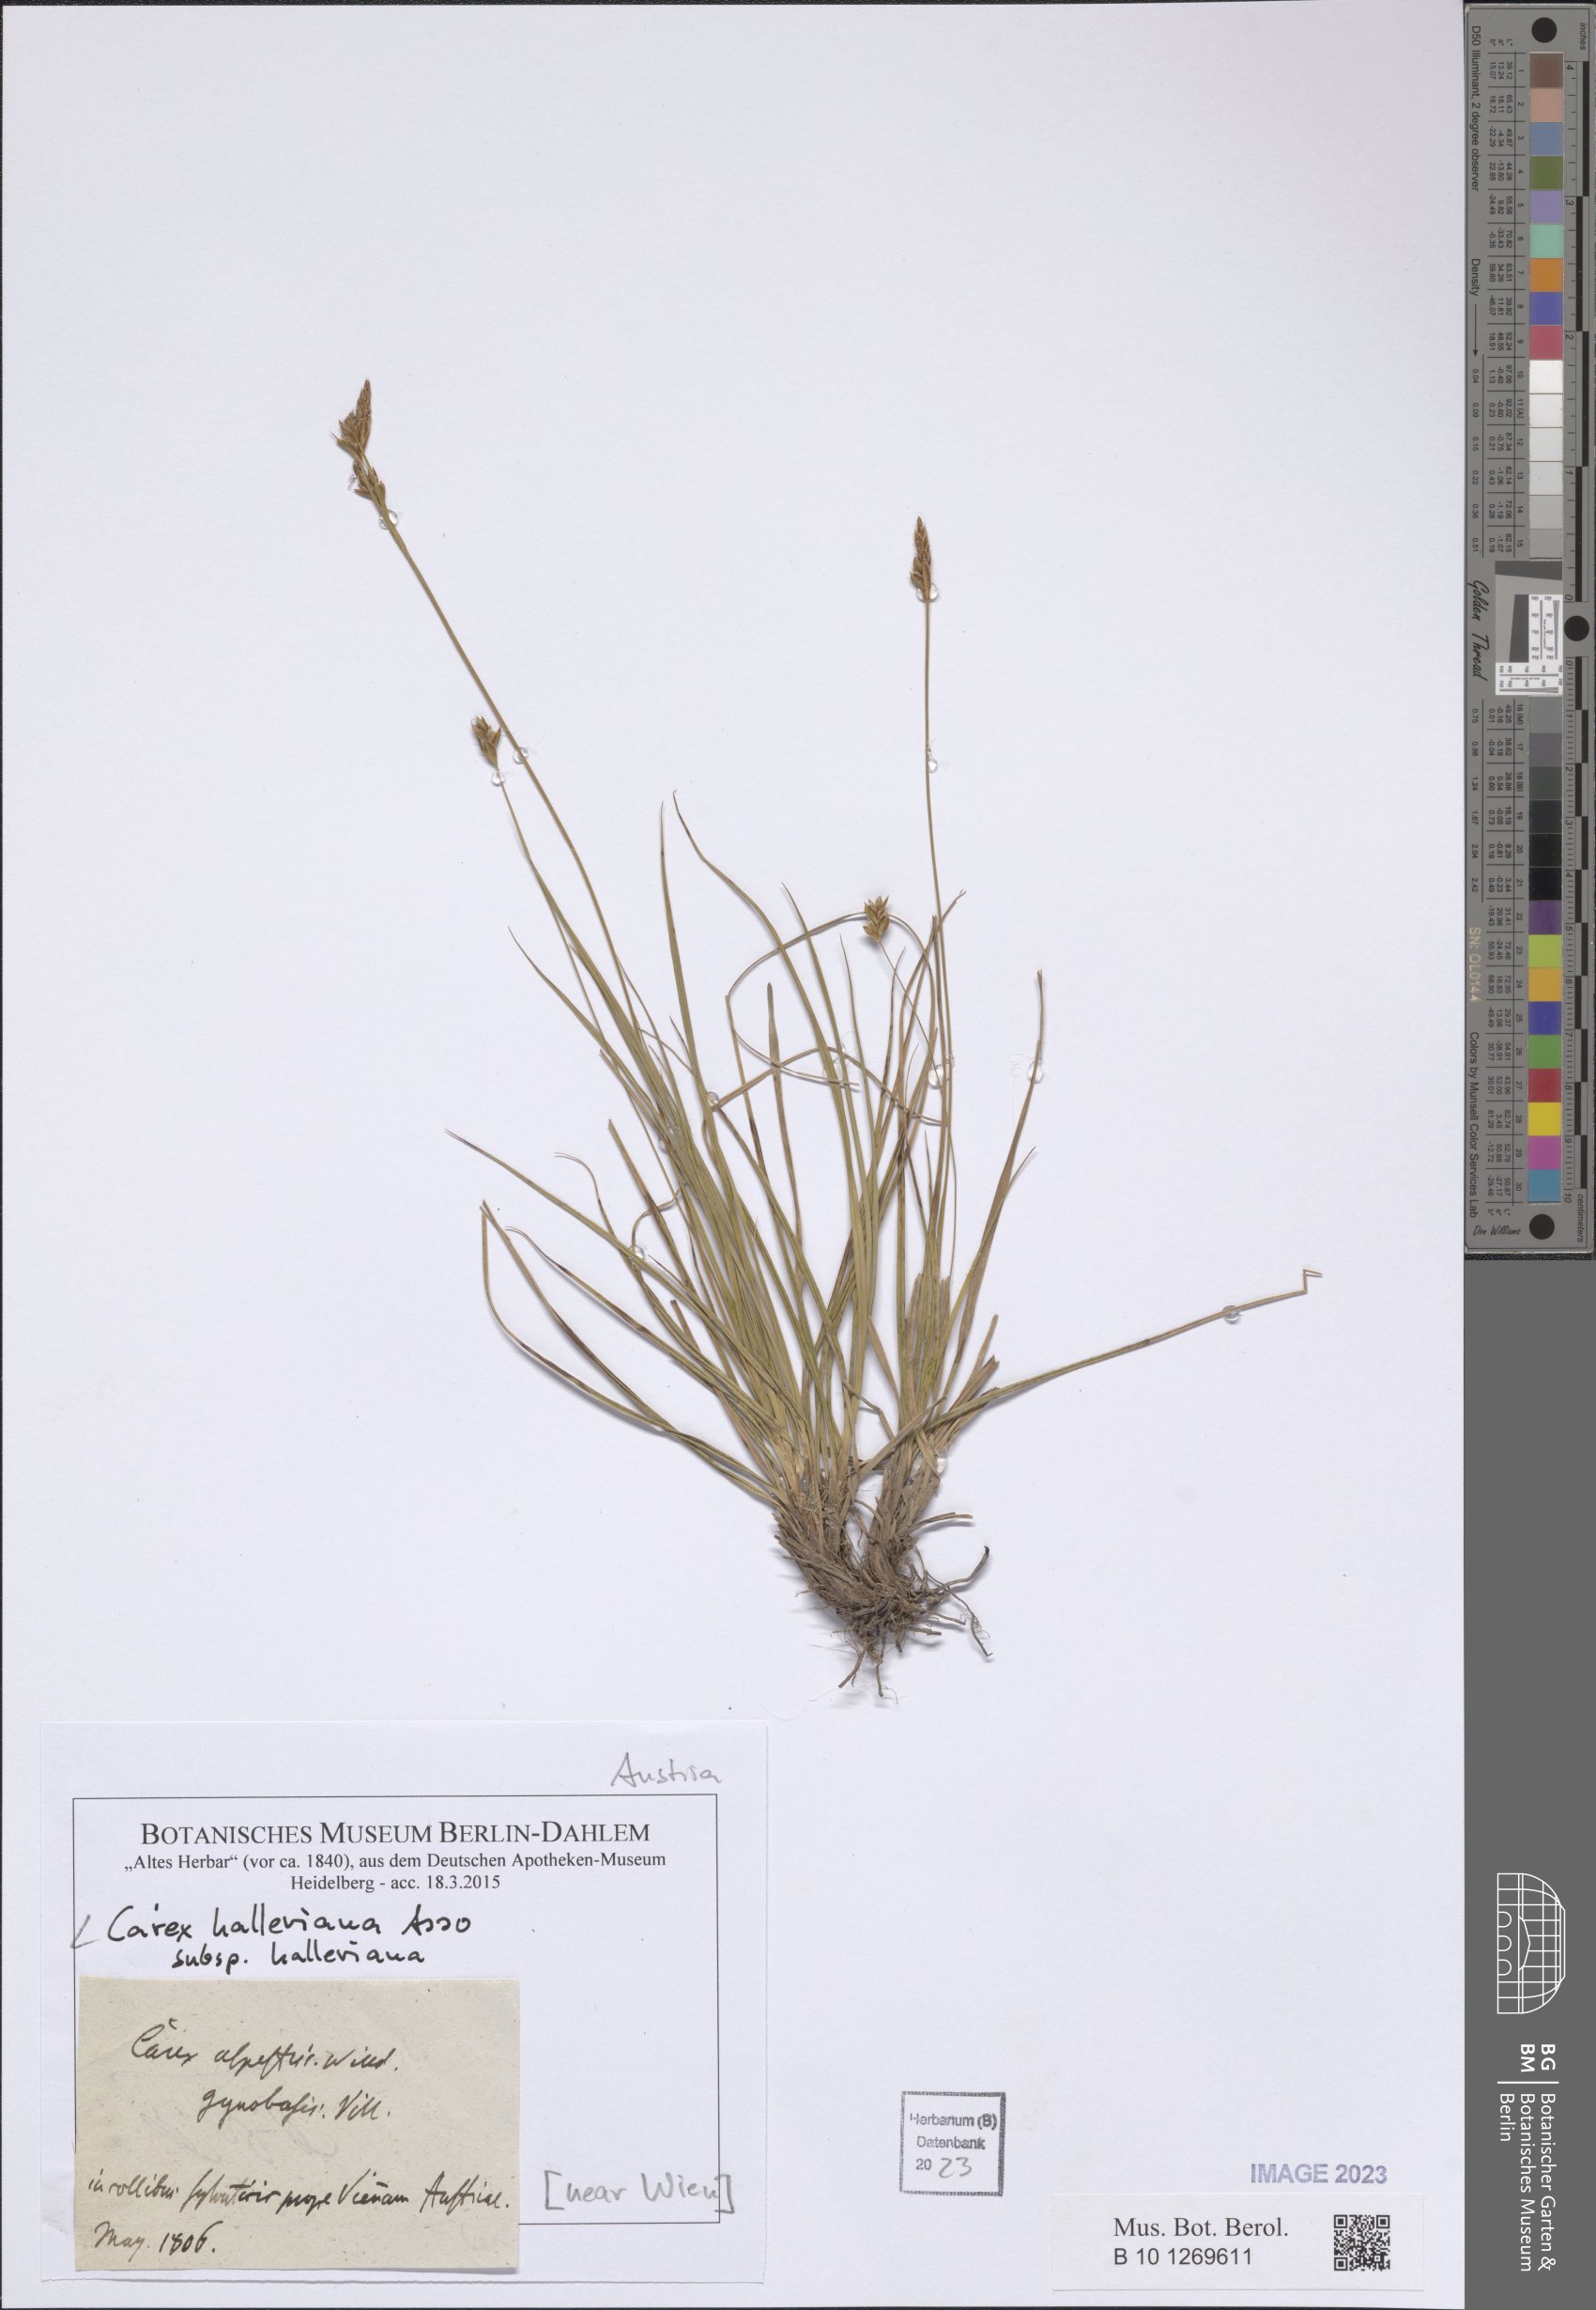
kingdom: Plantae
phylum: Tracheophyta
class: Liliopsida
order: Poales
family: Cyperaceae
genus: Carex
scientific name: Carex halleriana
